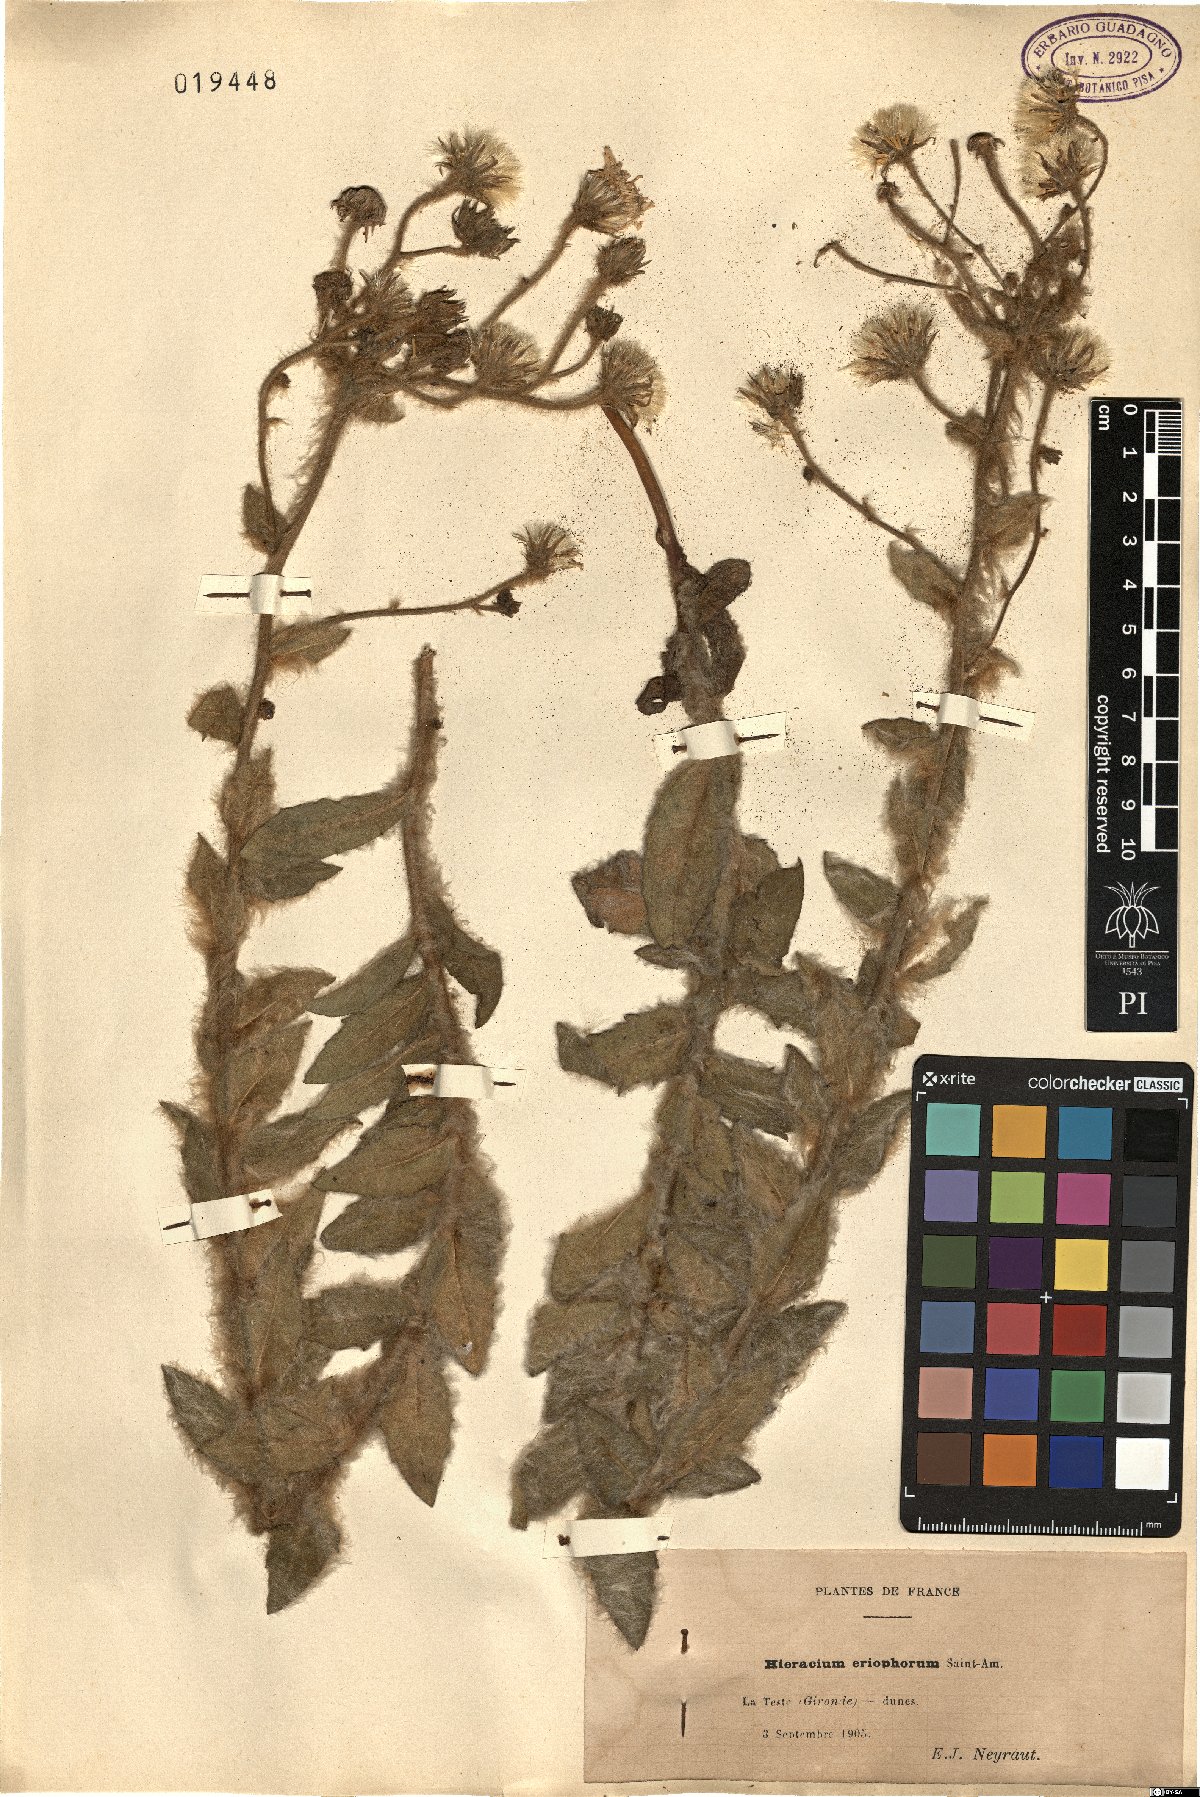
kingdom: Plantae
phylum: Tracheophyta
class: Magnoliopsida
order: Asterales
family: Asteraceae
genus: Hieracium
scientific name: Hieracium eriophorum
